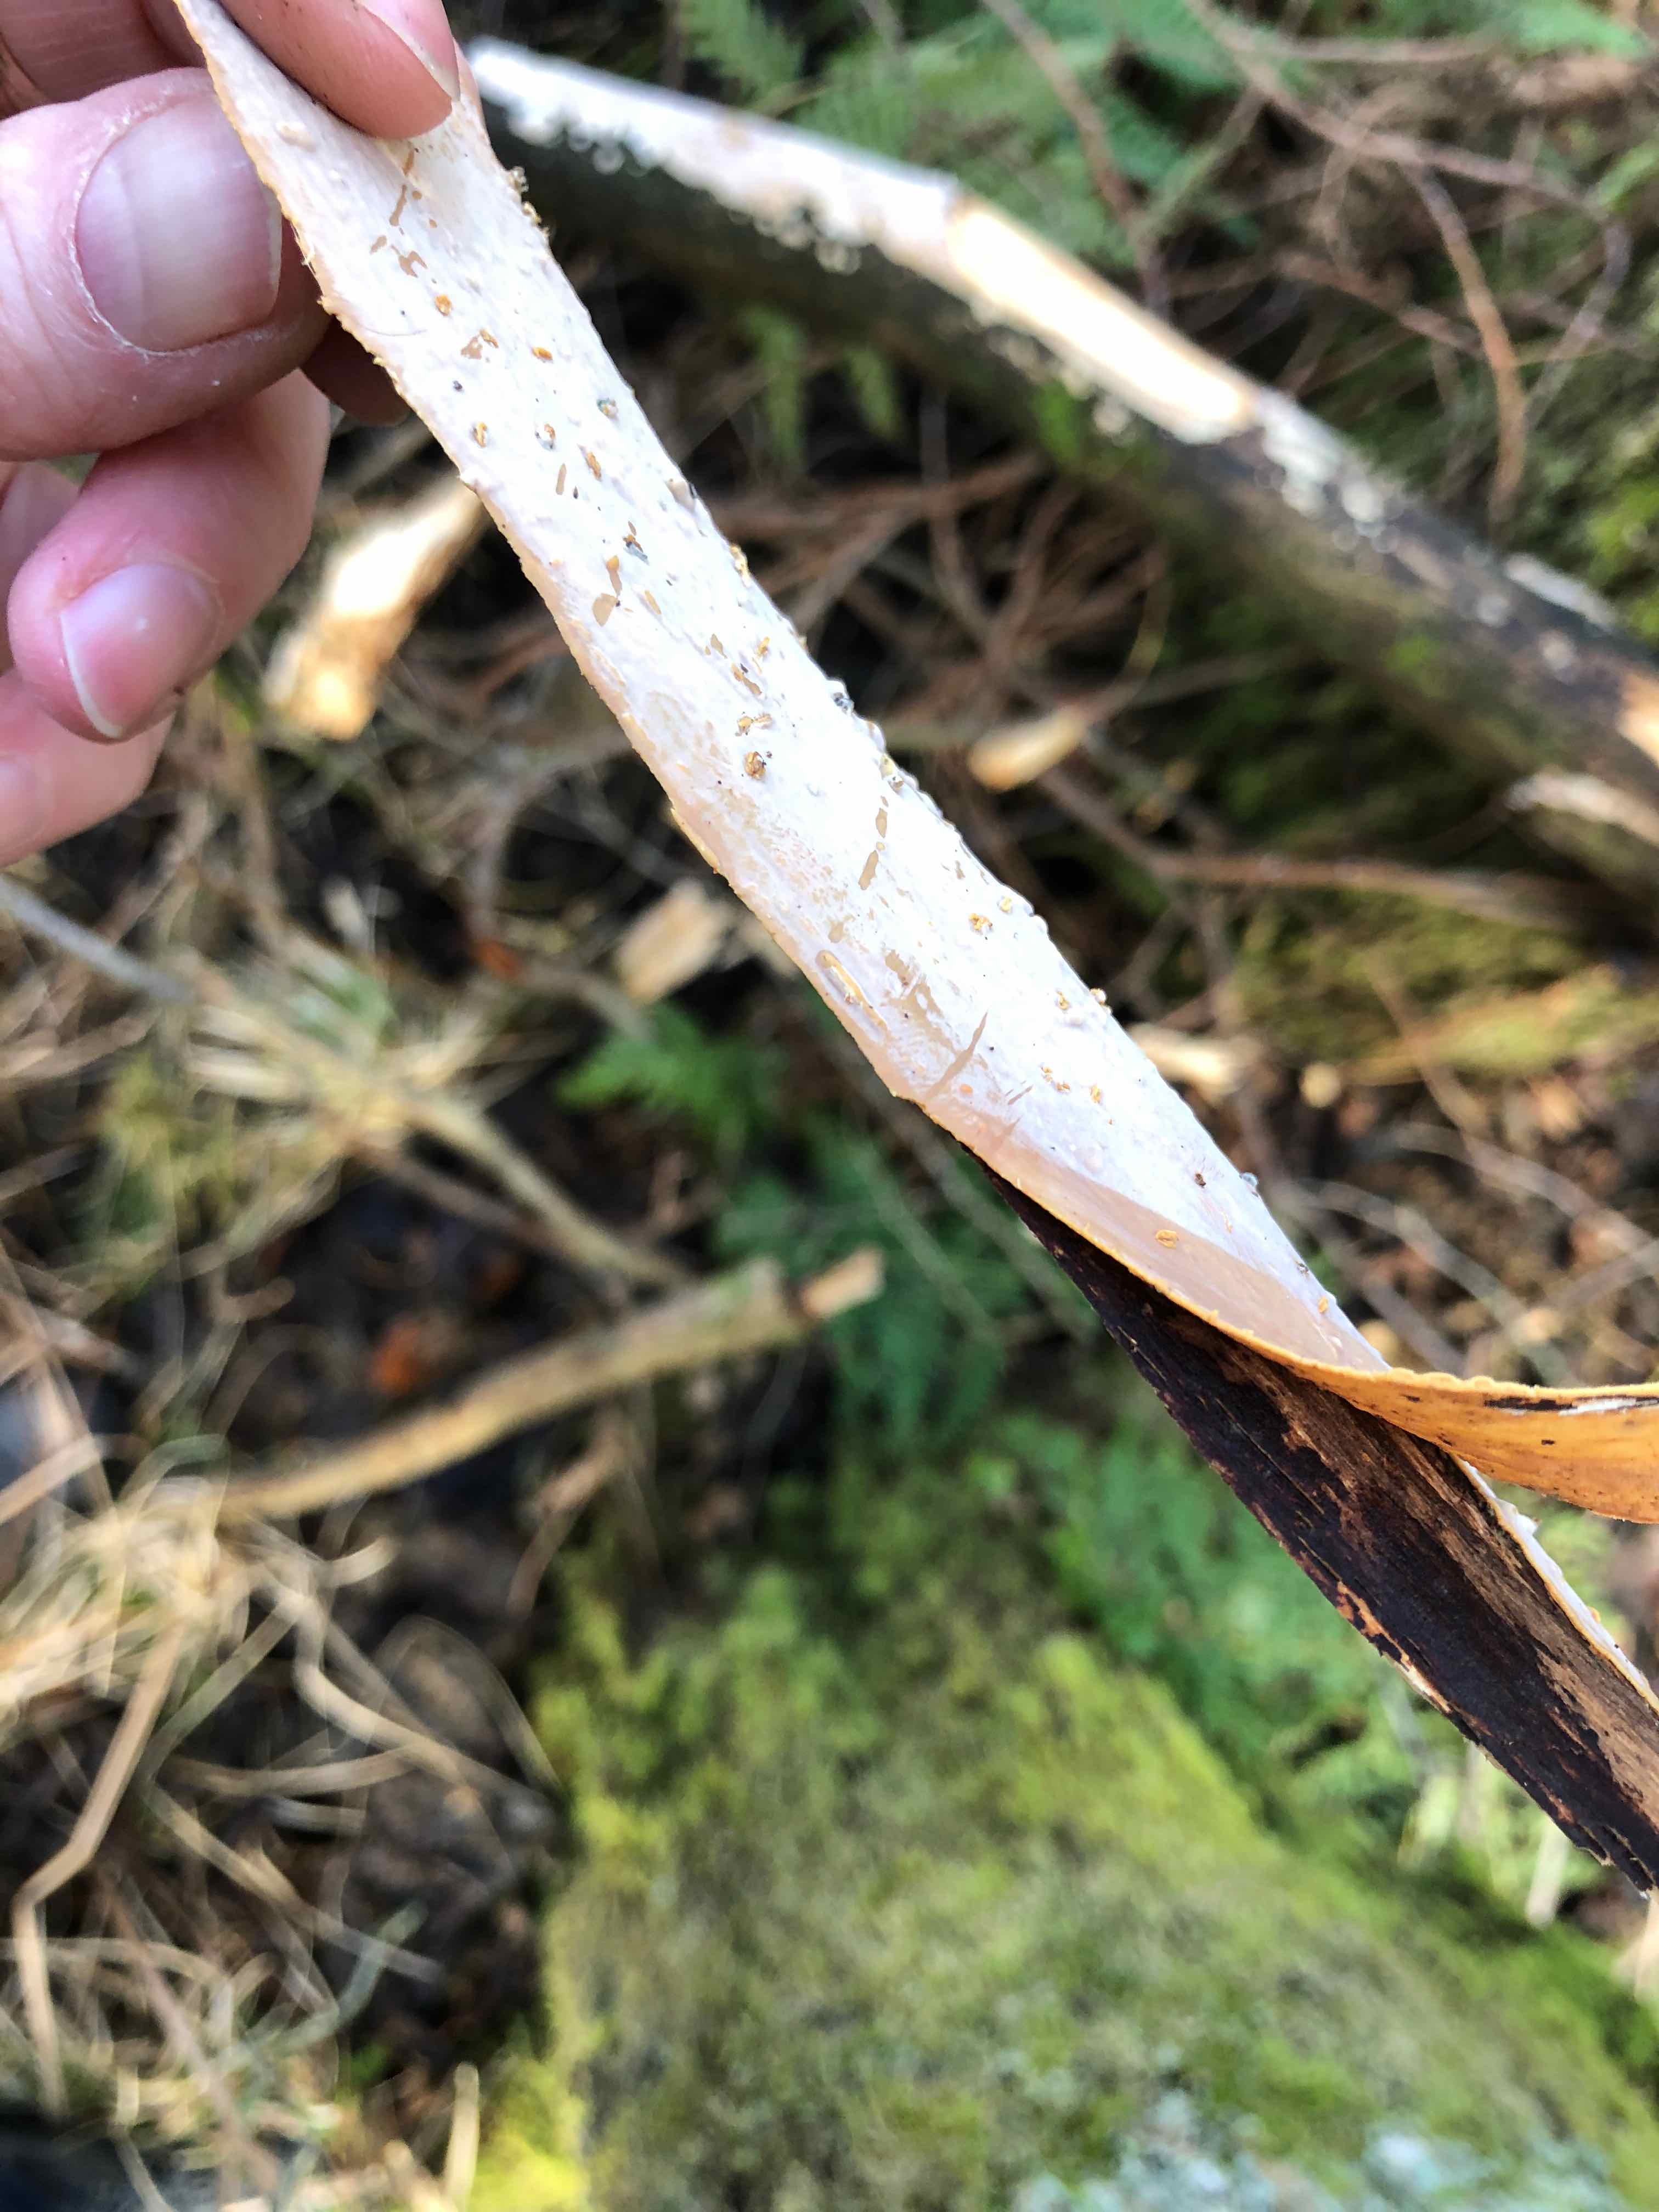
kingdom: Fungi
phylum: Basidiomycota
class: Agaricomycetes
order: Russulales
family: Peniophoraceae
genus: Scytinostroma
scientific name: Scytinostroma hemidichophyticum
